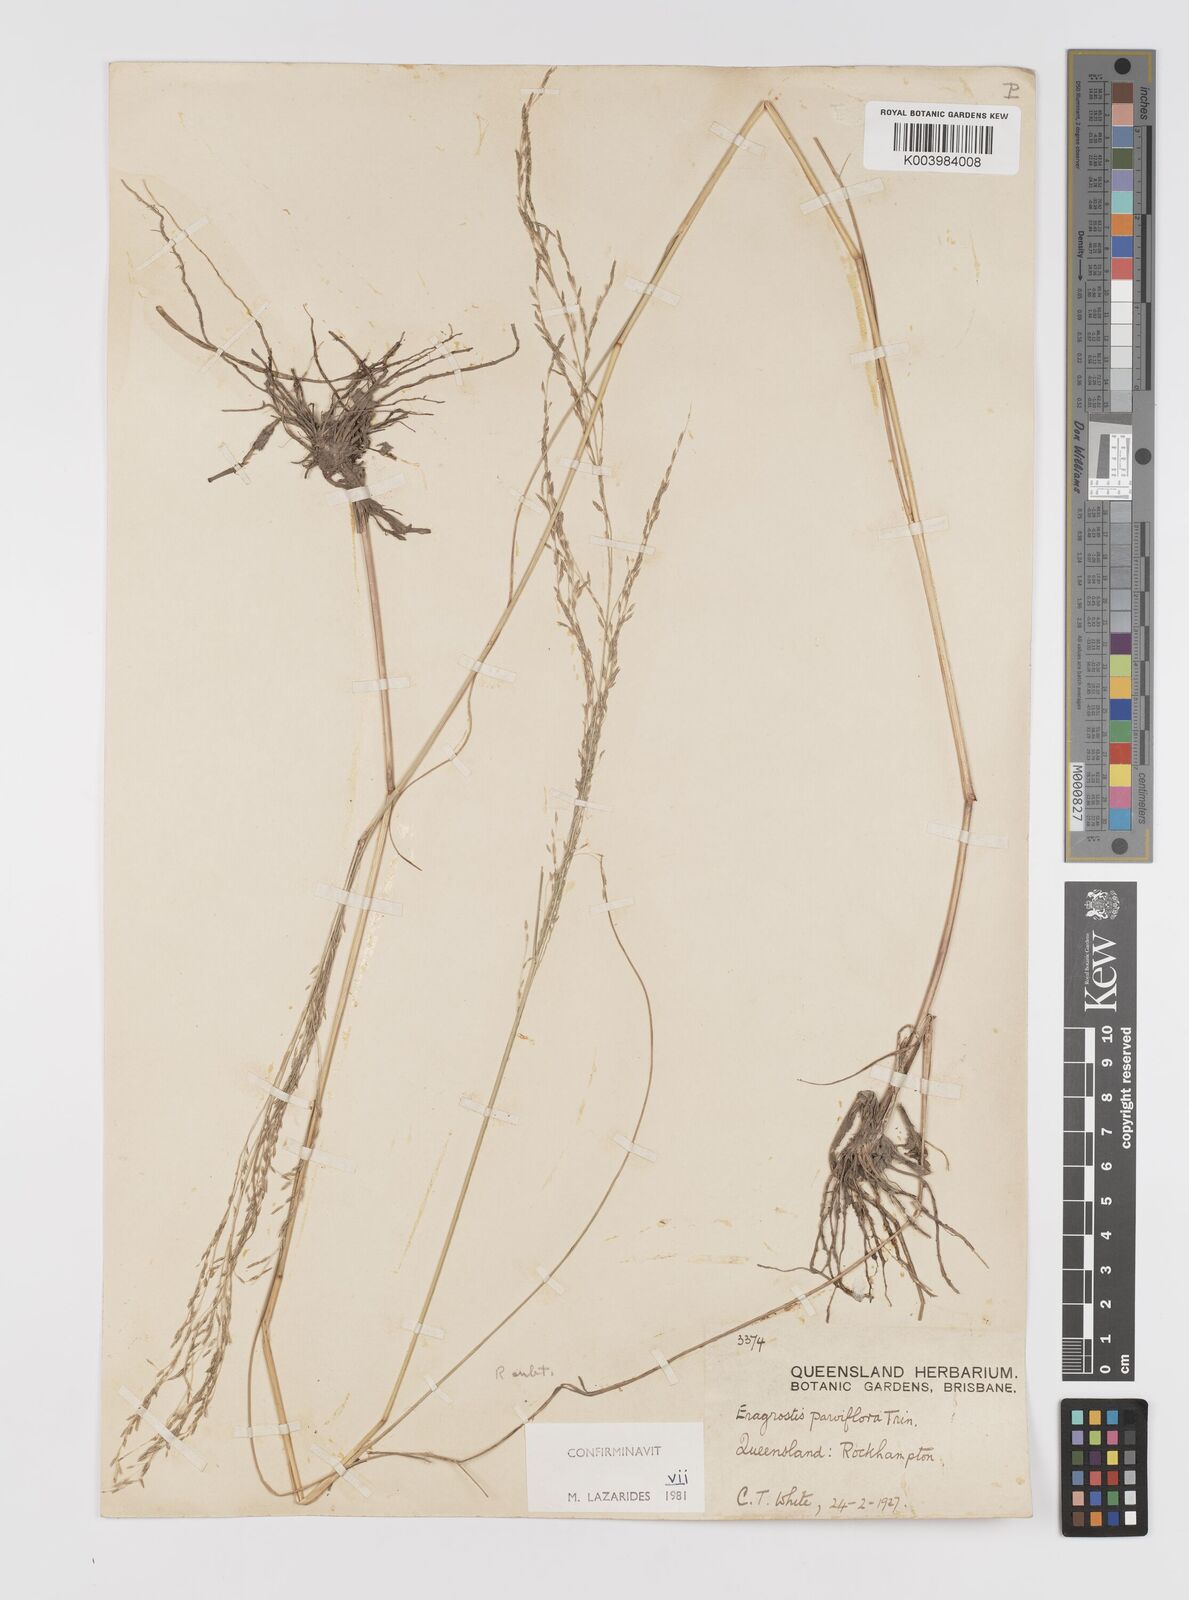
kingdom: Plantae
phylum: Tracheophyta
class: Liliopsida
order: Poales
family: Poaceae
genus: Eragrostis
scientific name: Eragrostis parviflora
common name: Weeping love-grass
